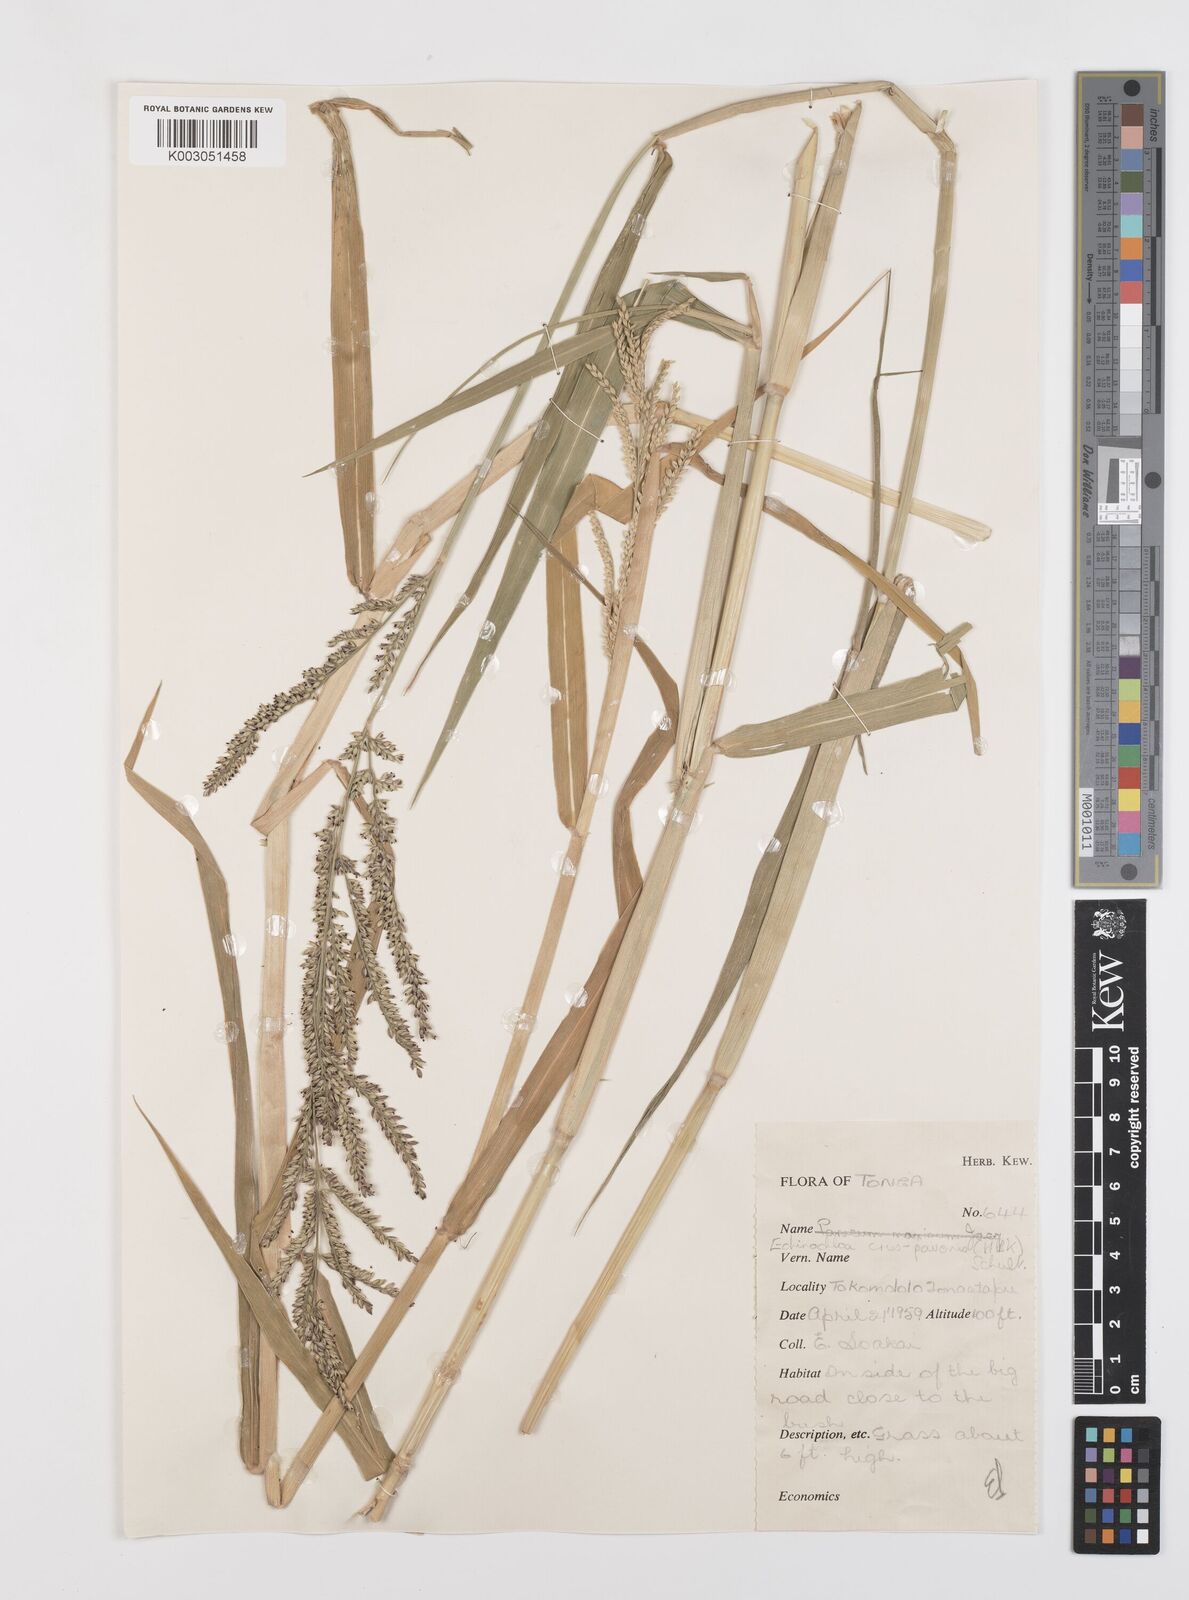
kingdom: Plantae
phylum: Tracheophyta
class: Liliopsida
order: Poales
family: Poaceae
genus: Urochloa
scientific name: Urochloa mutica
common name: Para grass
